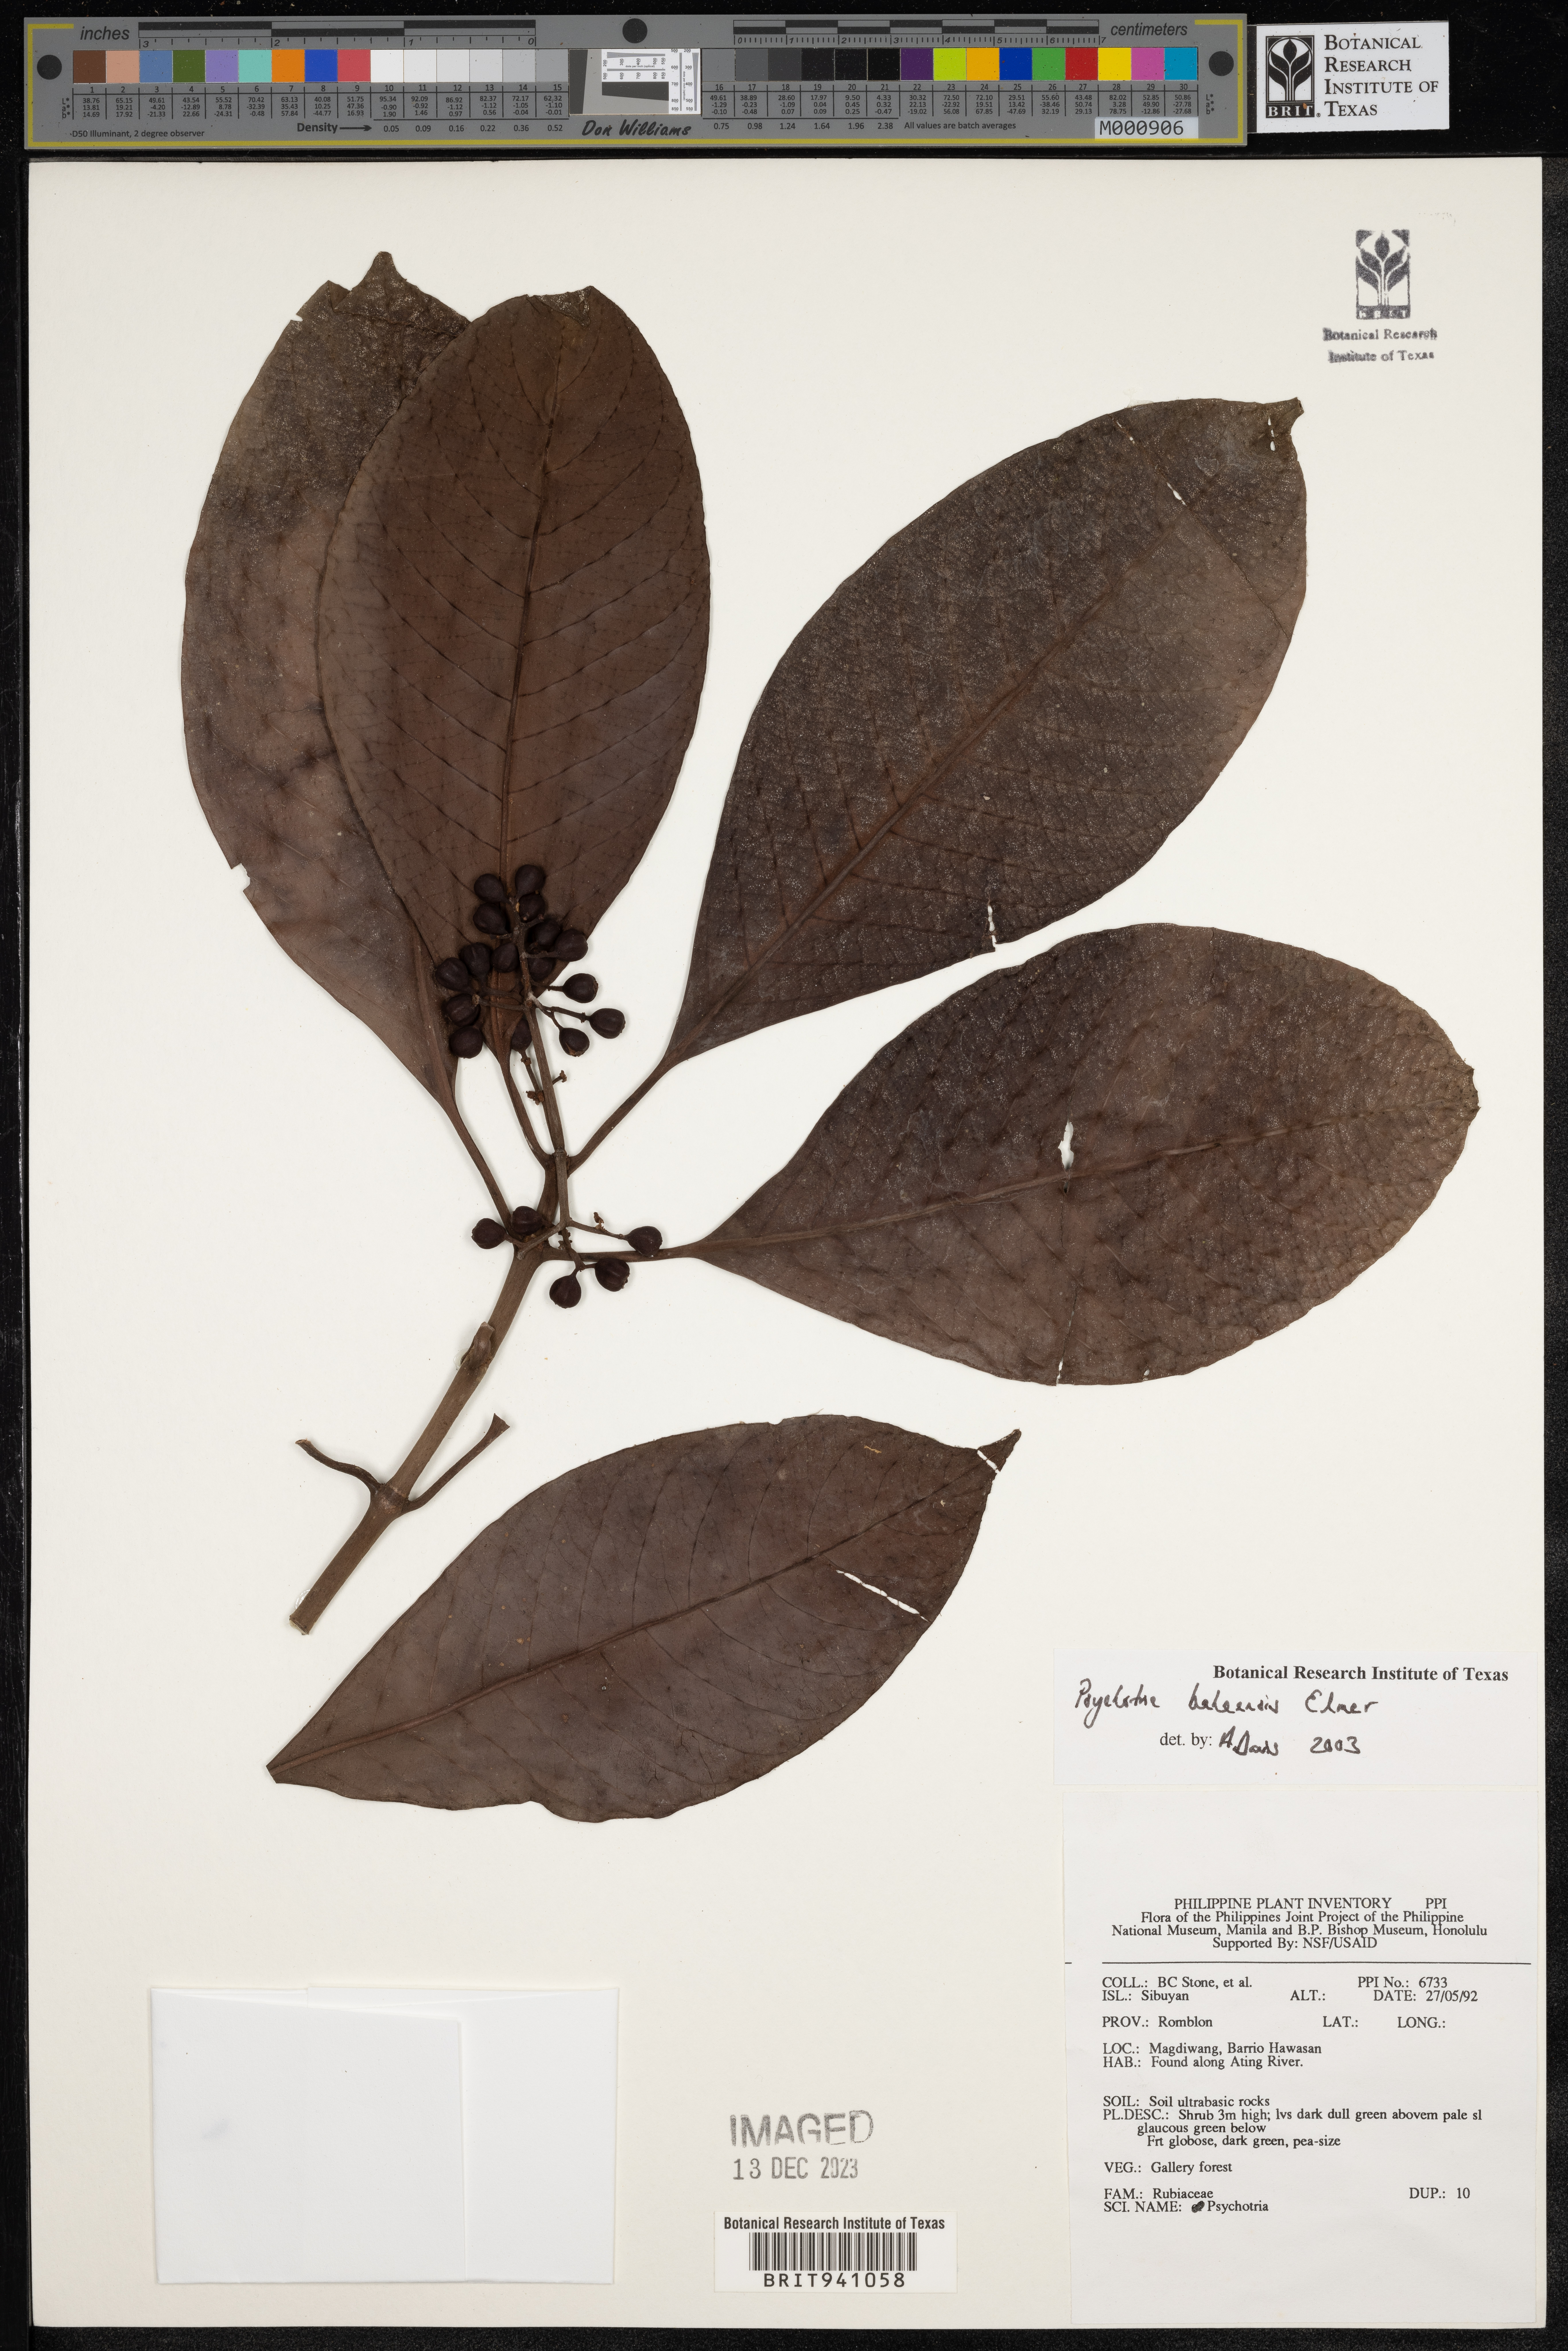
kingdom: Plantae
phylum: Tracheophyta
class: Magnoliopsida
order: Gentianales
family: Rubiaceae
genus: Psychotria
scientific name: Psychotria
